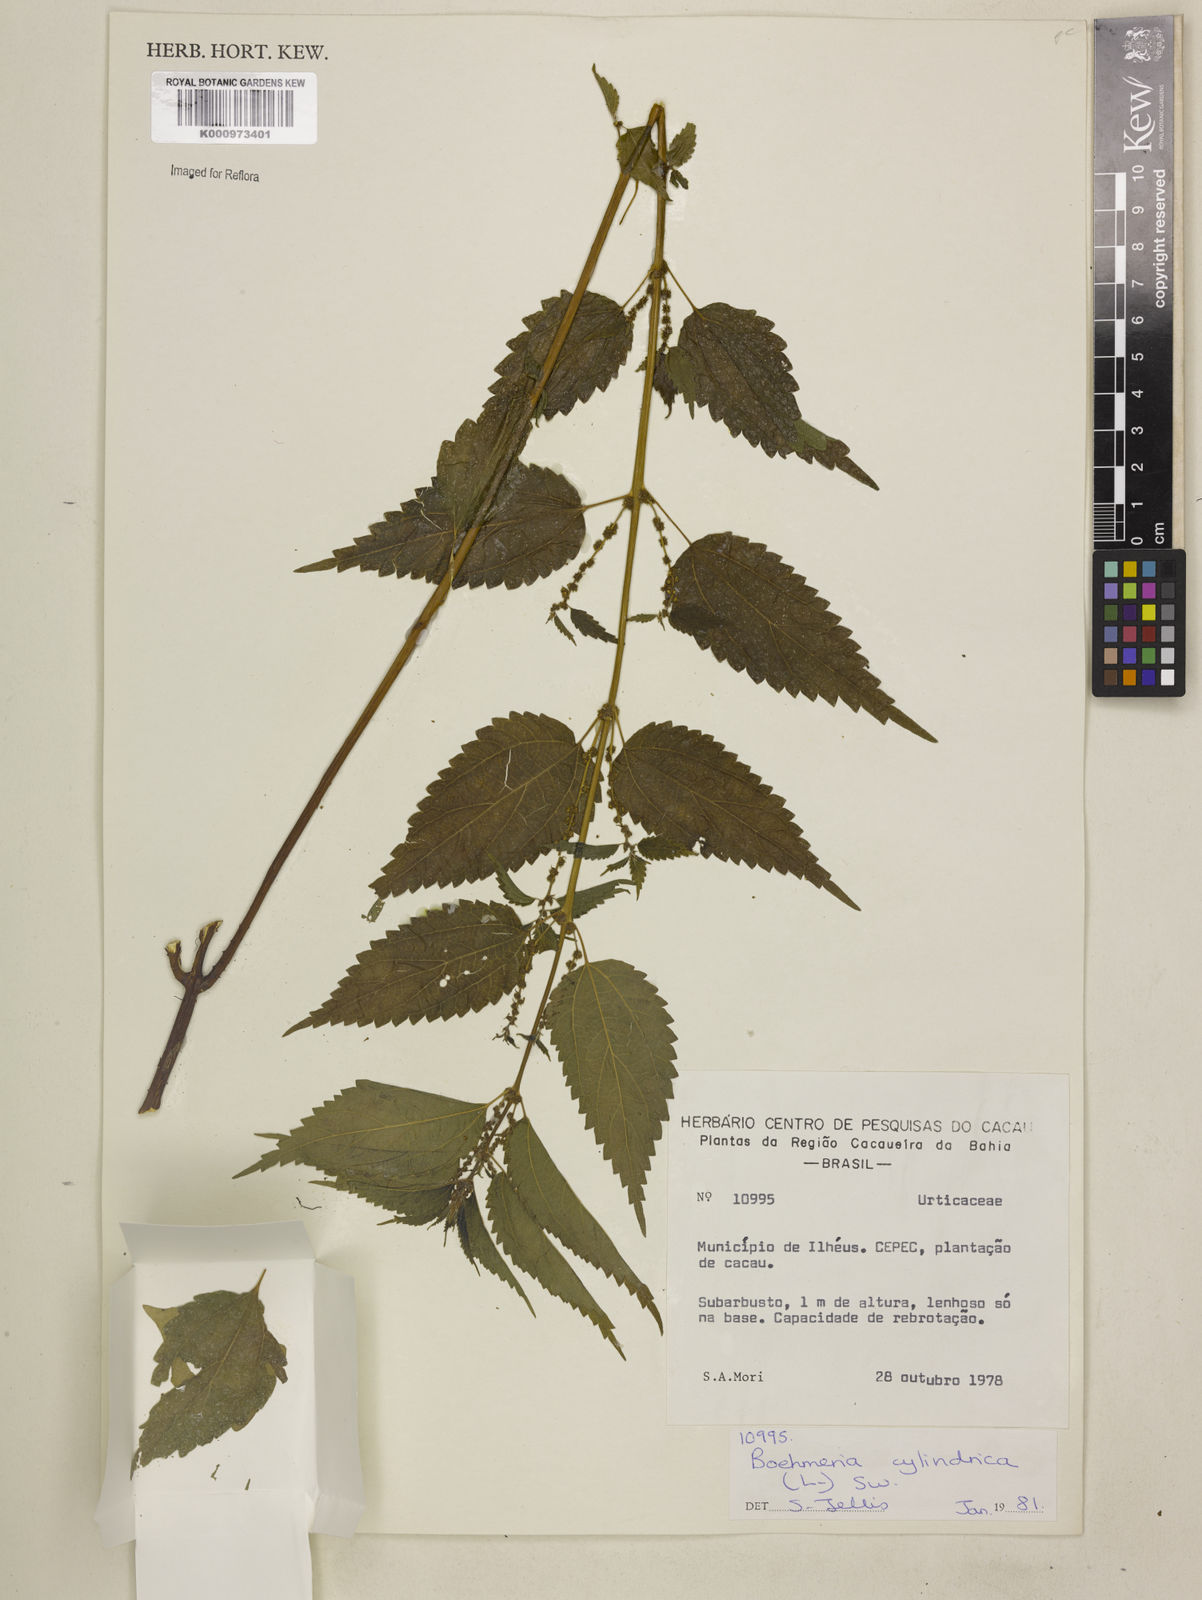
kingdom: Plantae
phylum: Tracheophyta
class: Magnoliopsida
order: Rosales
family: Urticaceae
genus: Boehmeria
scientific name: Boehmeria cylindrica
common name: Bog-hemp
